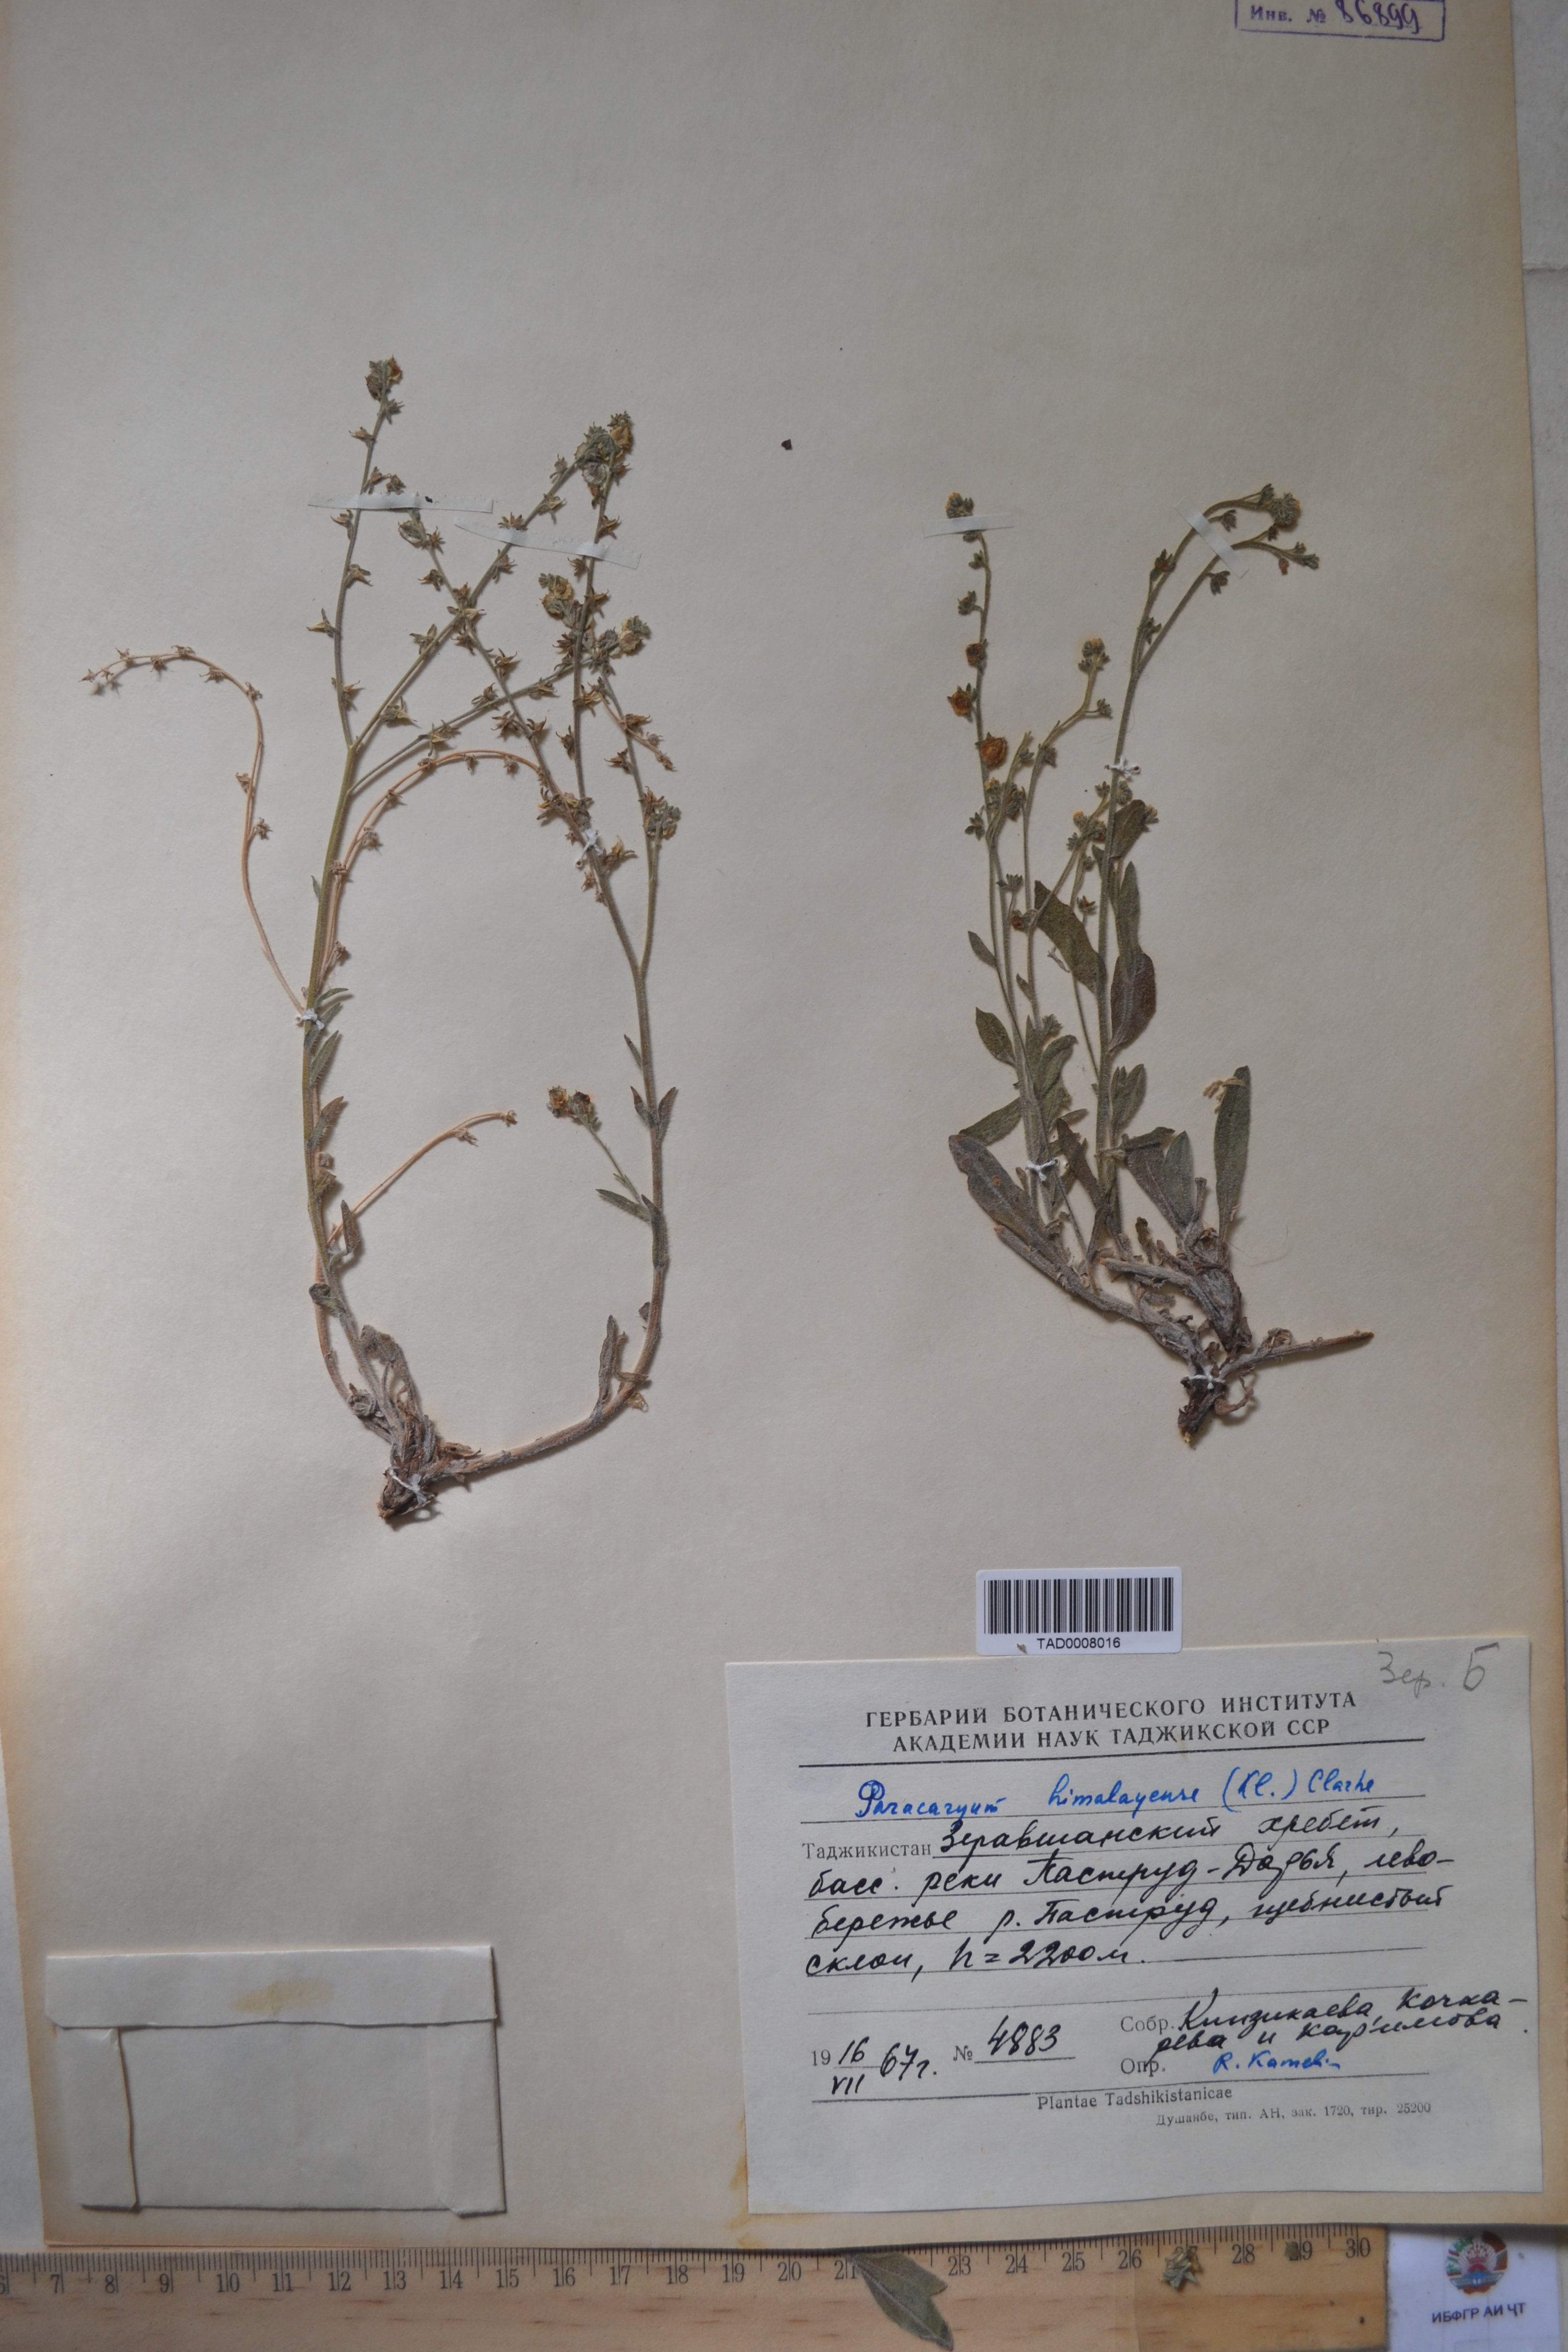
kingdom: Plantae
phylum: Tracheophyta
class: Magnoliopsida
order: Boraginales
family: Boraginaceae
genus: Paracaryum
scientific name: Paracaryum himalayense
